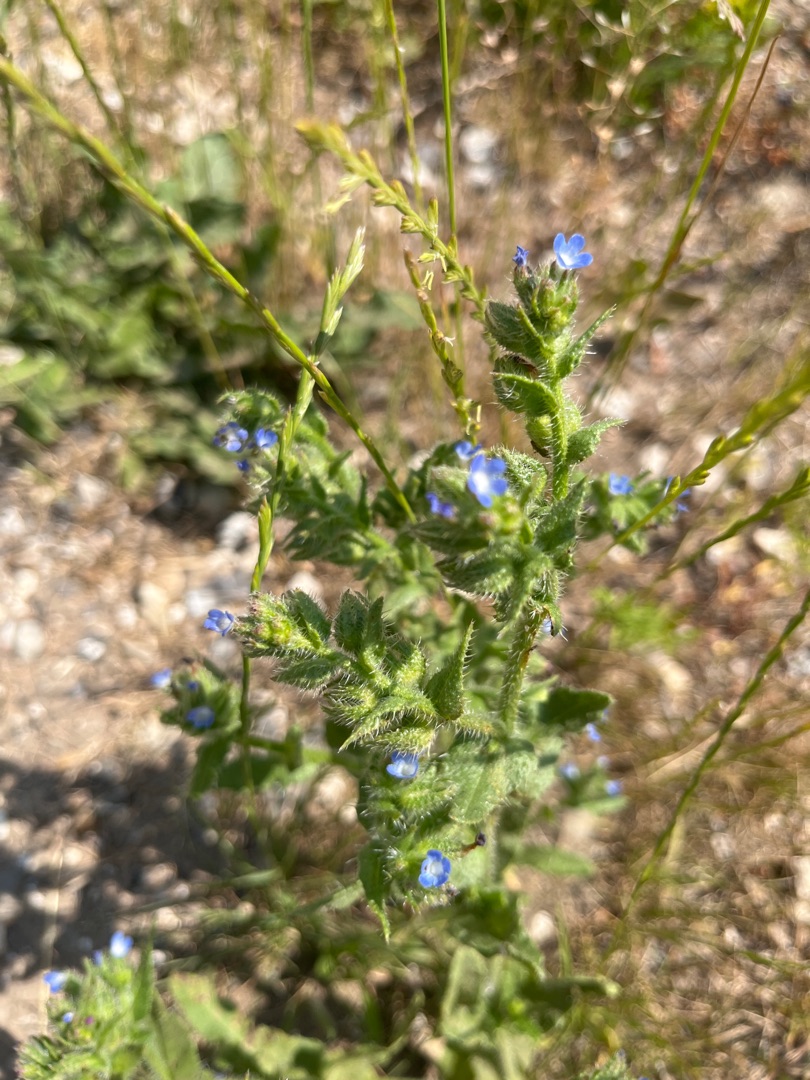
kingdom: Plantae
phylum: Tracheophyta
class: Magnoliopsida
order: Boraginales
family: Boraginaceae
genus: Lycopsis
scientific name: Lycopsis arvensis
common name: Krumhals
